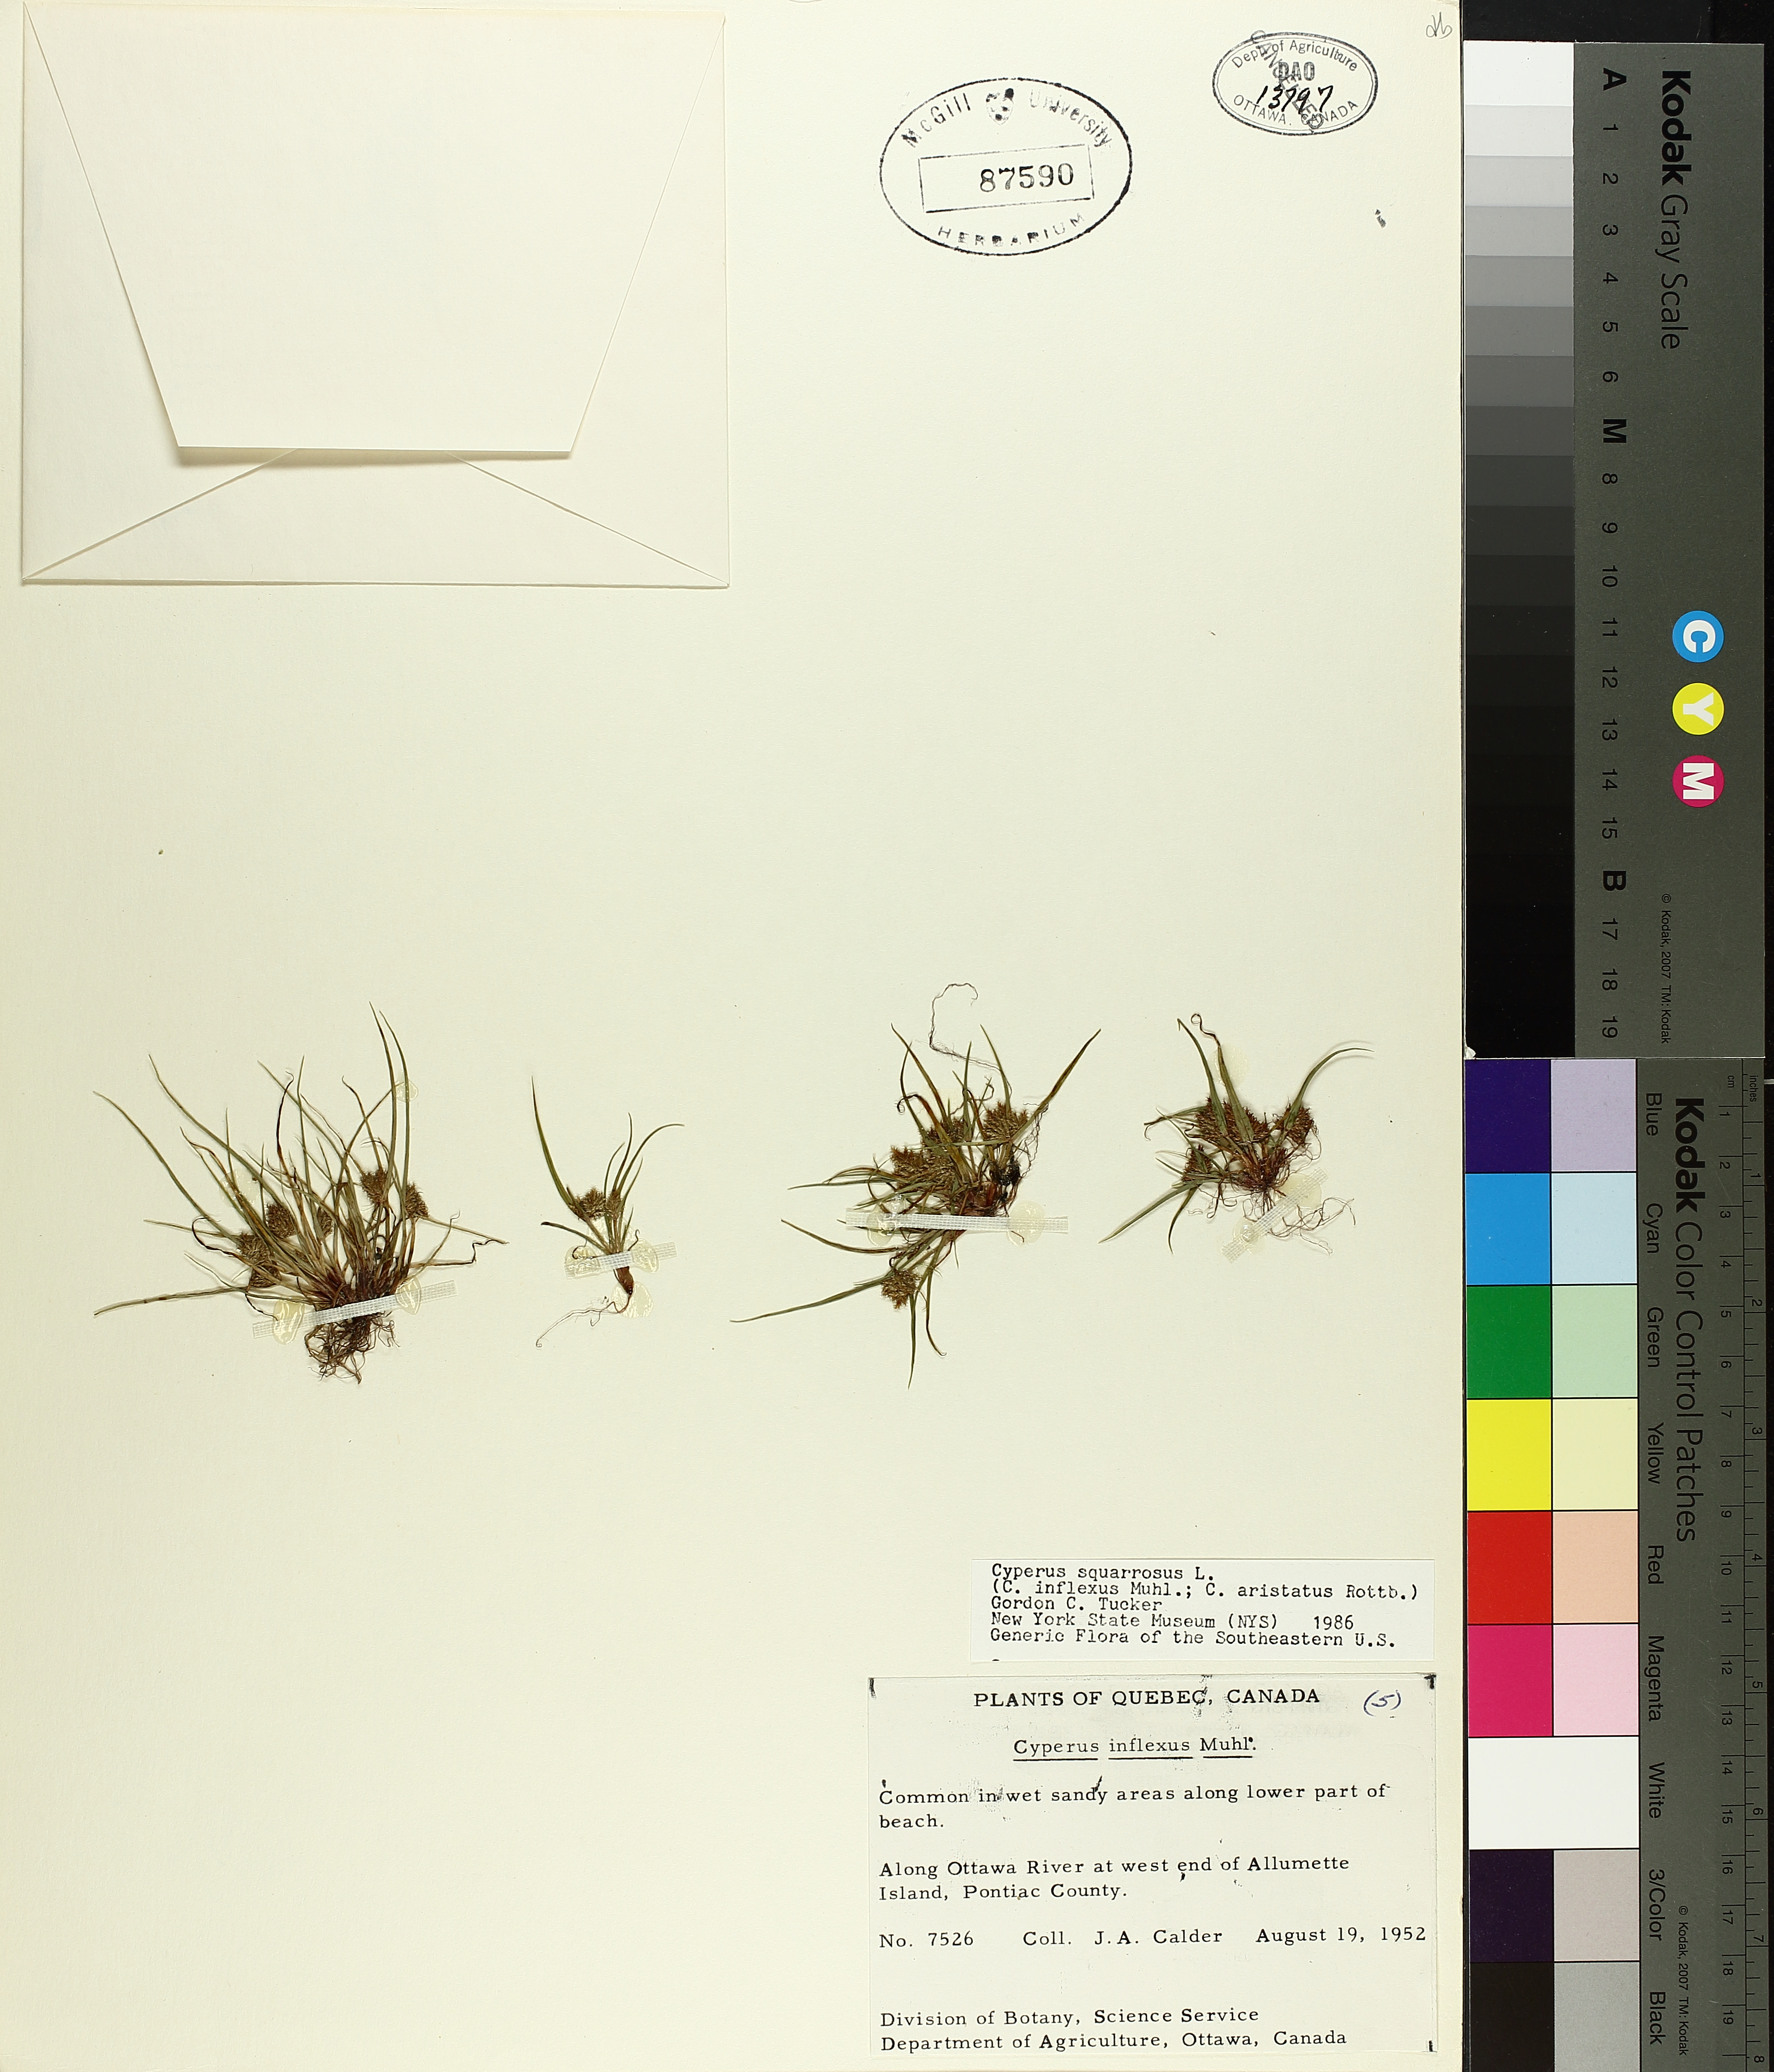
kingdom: Plantae
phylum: Tracheophyta
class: Liliopsida
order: Poales
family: Cyperaceae
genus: Cyperus
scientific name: Cyperus squarrosus
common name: Awned cyperus
